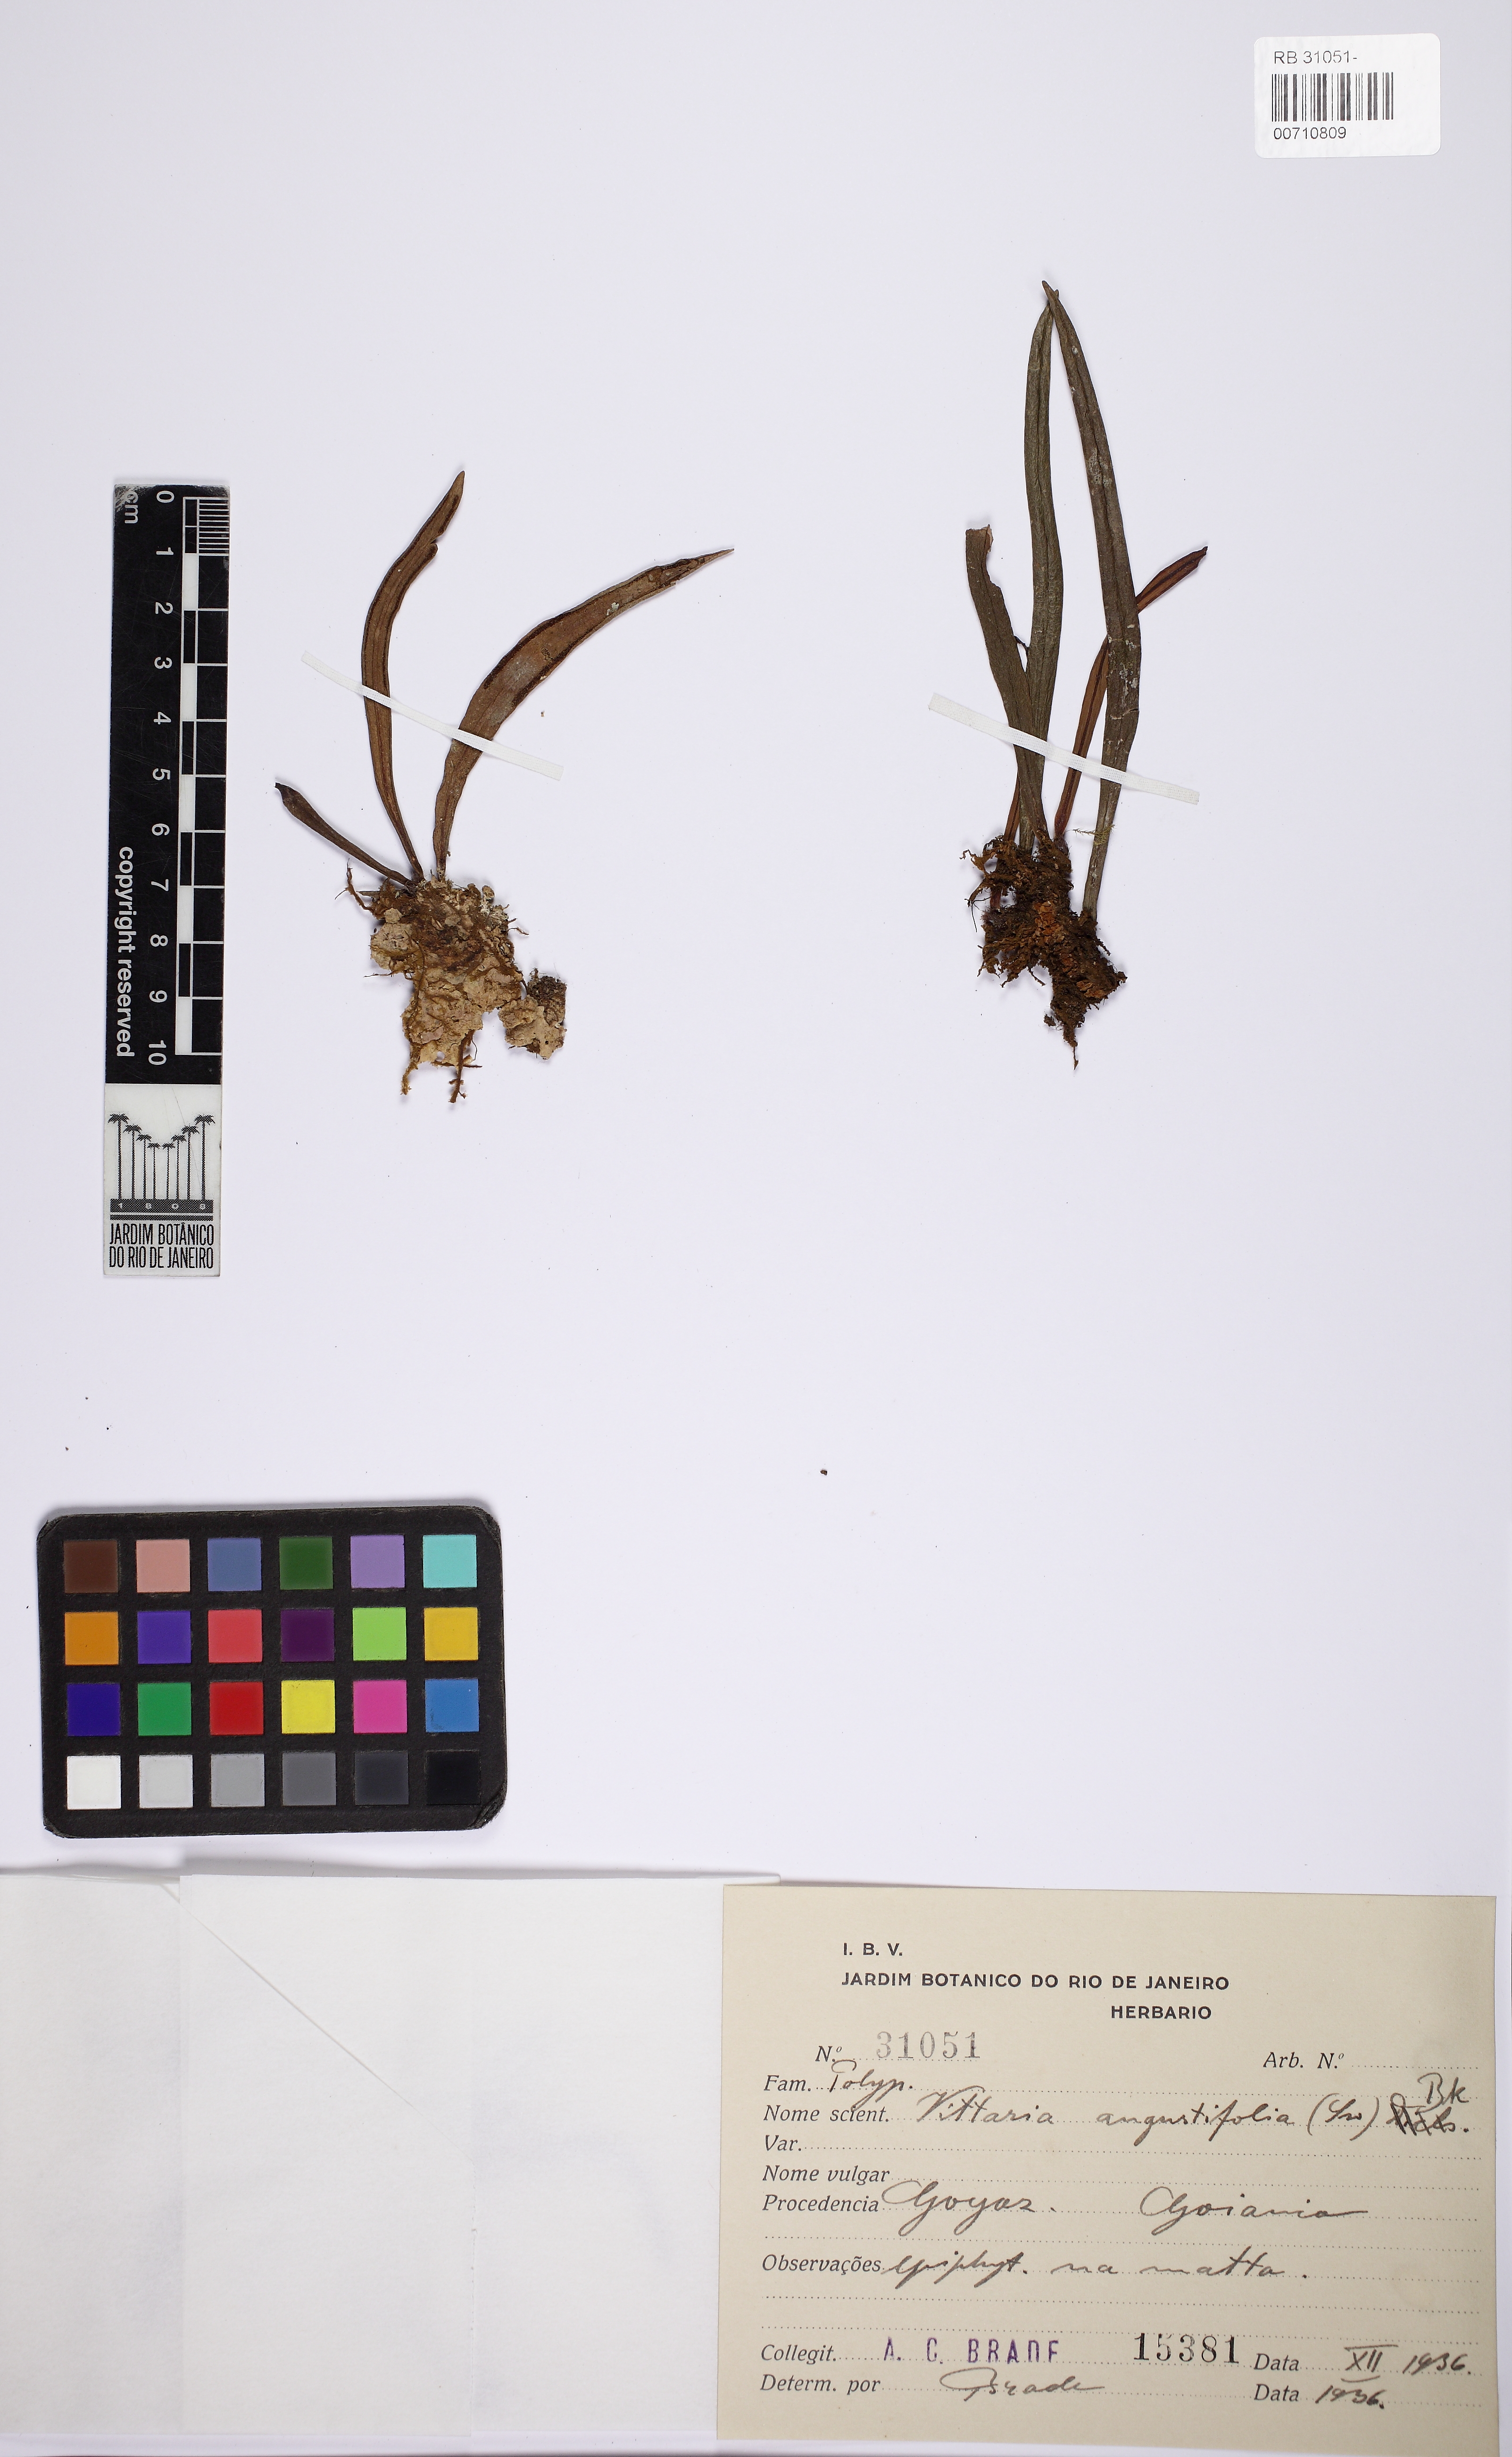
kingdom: Plantae
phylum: Tracheophyta
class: Polypodiopsida
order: Polypodiales
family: Pteridaceae
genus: Ananthacorus
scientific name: Ananthacorus angustifolius
